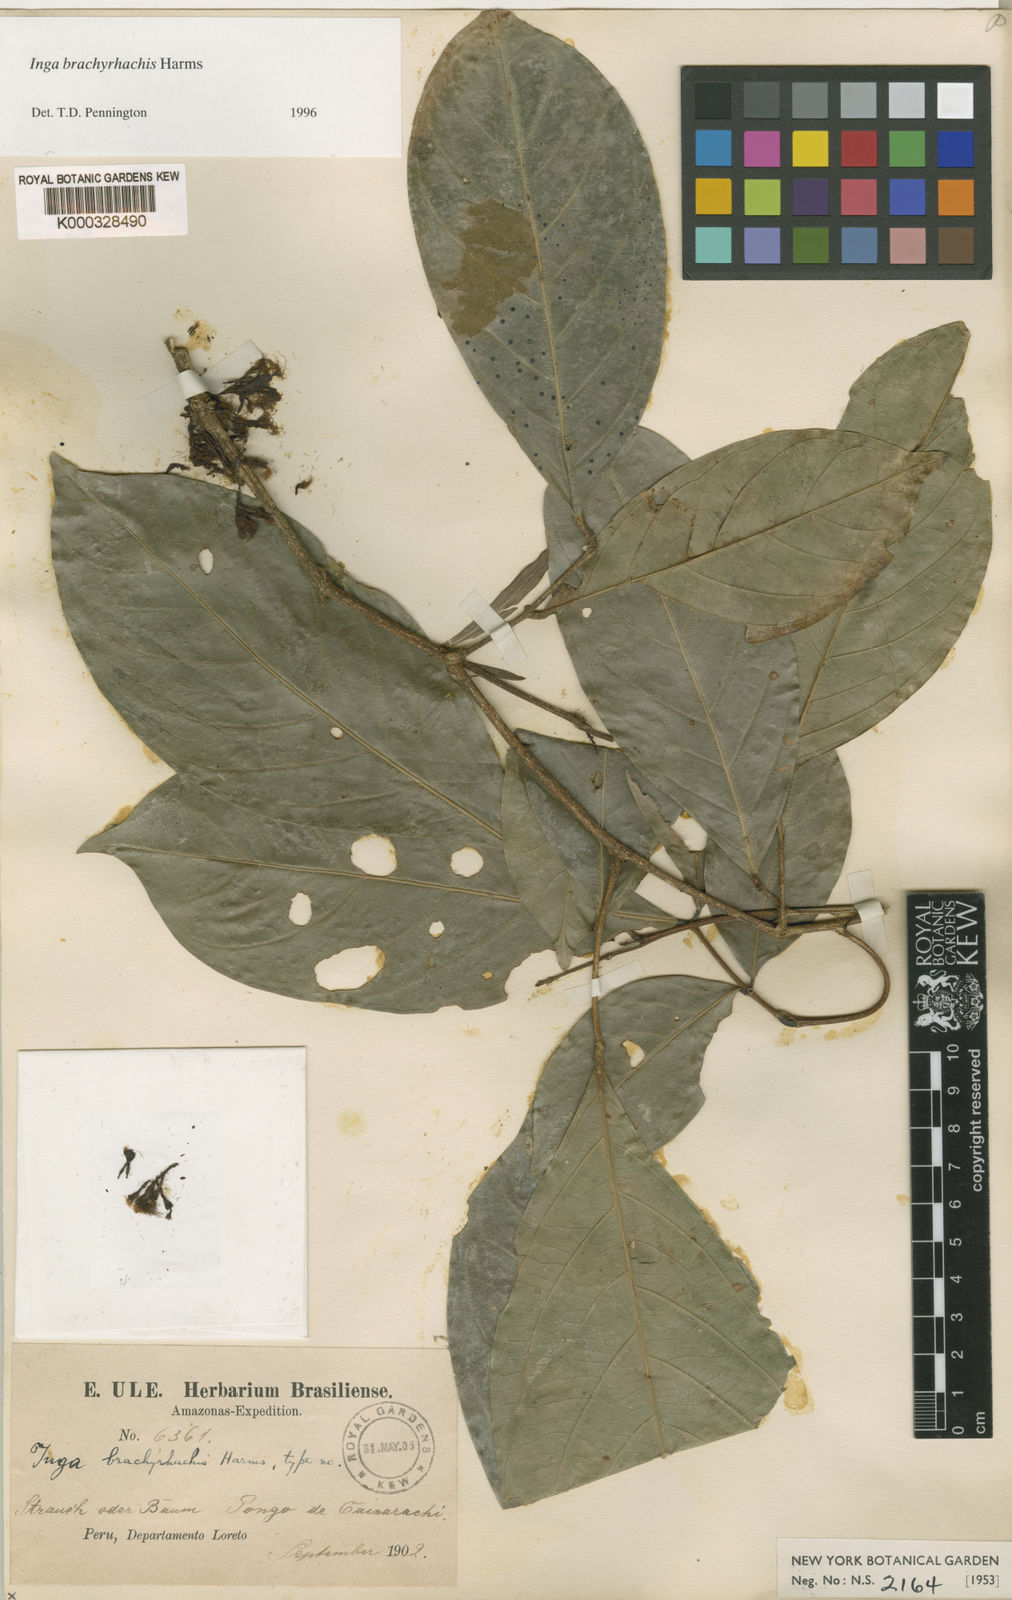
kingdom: Plantae
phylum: Tracheophyta
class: Magnoliopsida
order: Fabales
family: Fabaceae
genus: Inga
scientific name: Inga brachyrhachis
